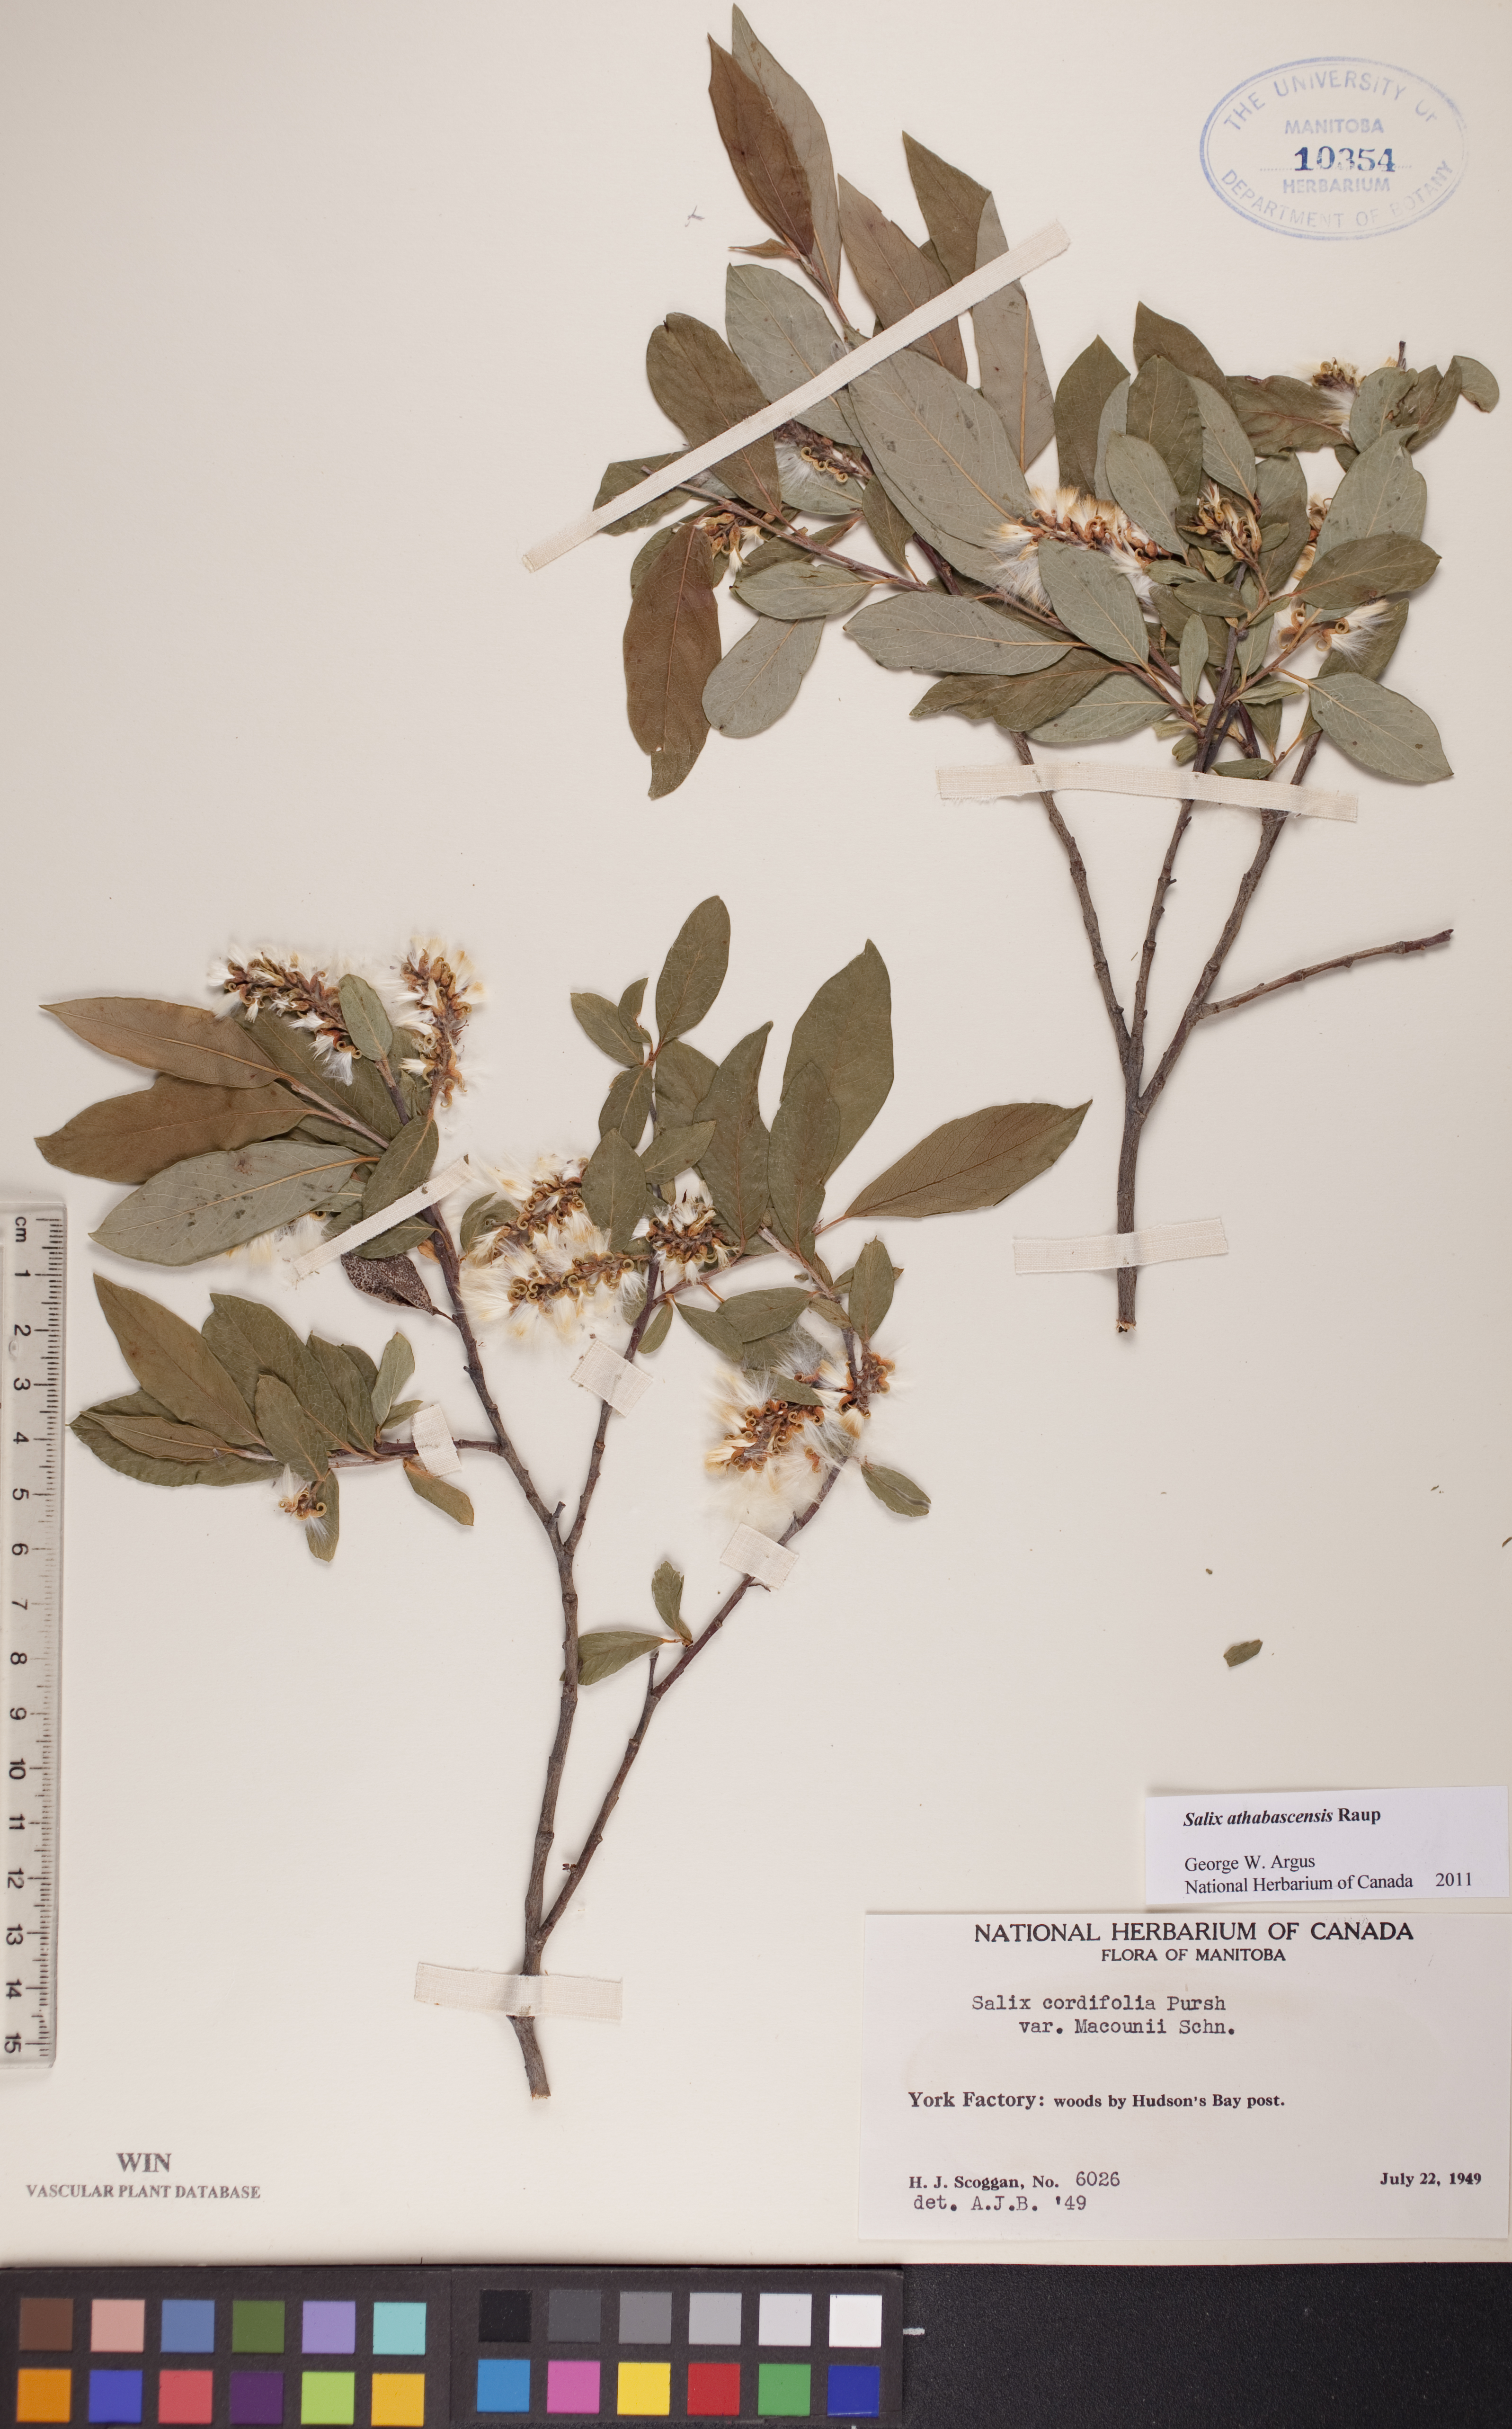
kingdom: Plantae
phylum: Tracheophyta
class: Magnoliopsida
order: Malpighiales
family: Salicaceae
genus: Salix
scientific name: Salix athabascensis
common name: Athabasca willow
